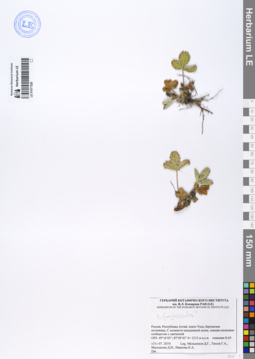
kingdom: Plantae
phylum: Tracheophyta
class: Magnoliopsida
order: Rosales
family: Rosaceae
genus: Potentilla
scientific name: Potentilla fragarioides
